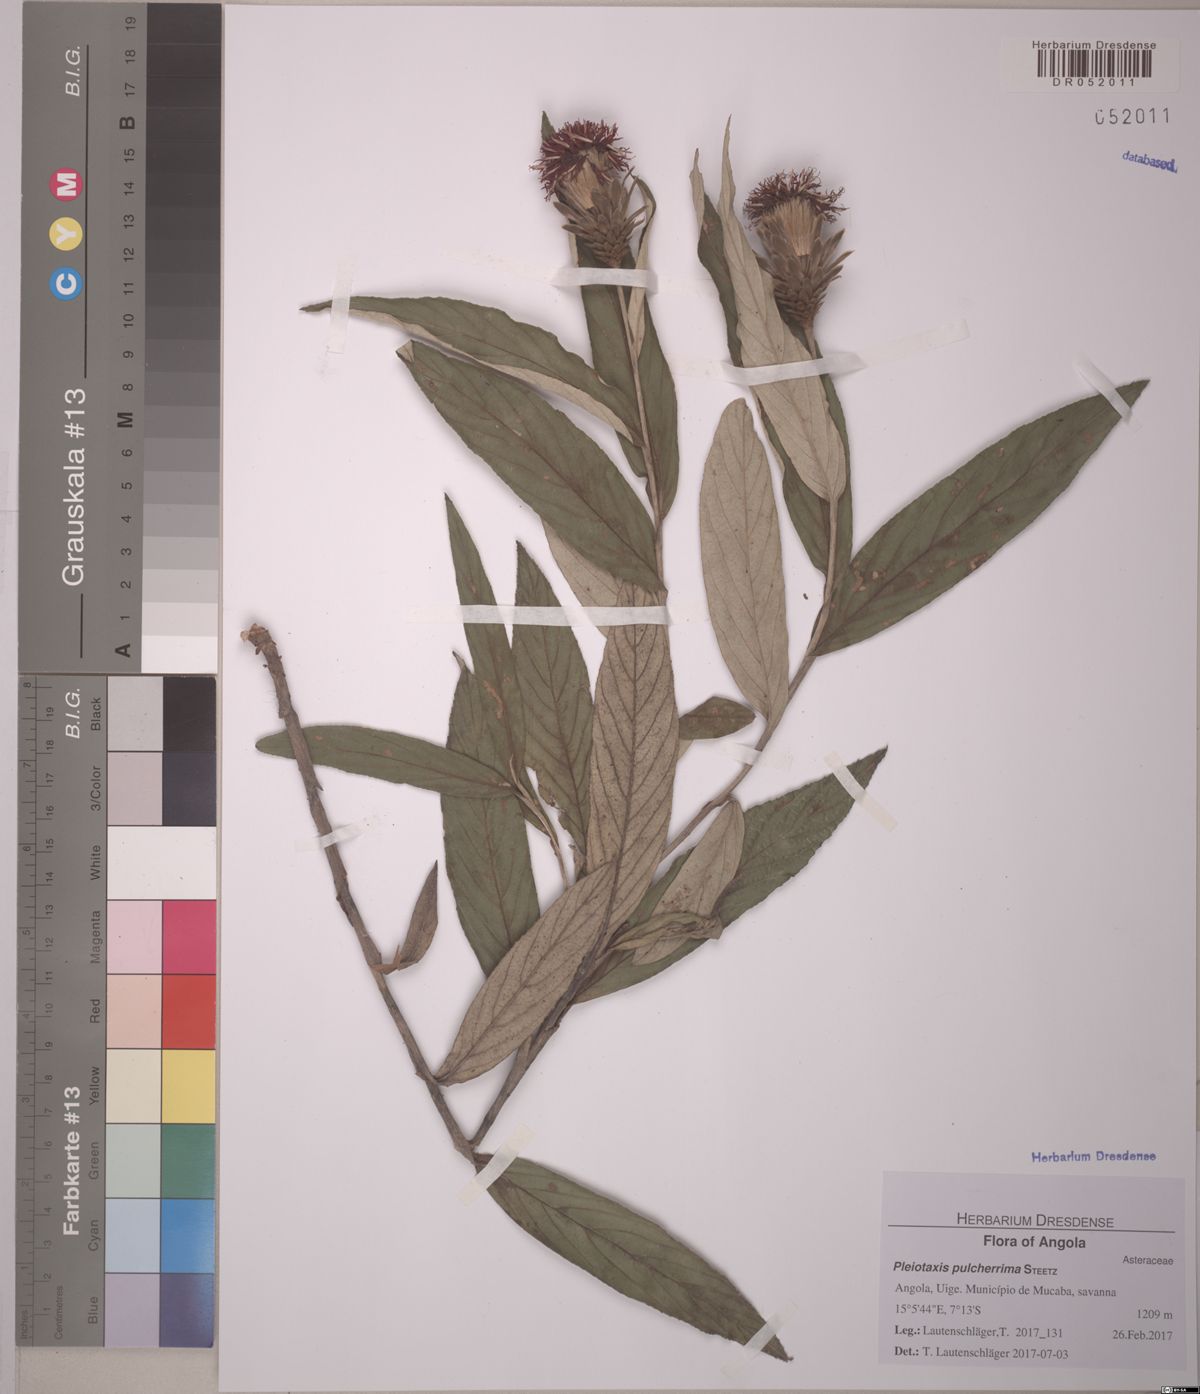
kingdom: Plantae
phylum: Tracheophyta
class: Magnoliopsida
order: Asterales
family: Asteraceae
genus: Pleiotaxis
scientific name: Pleiotaxis pulcherrima
